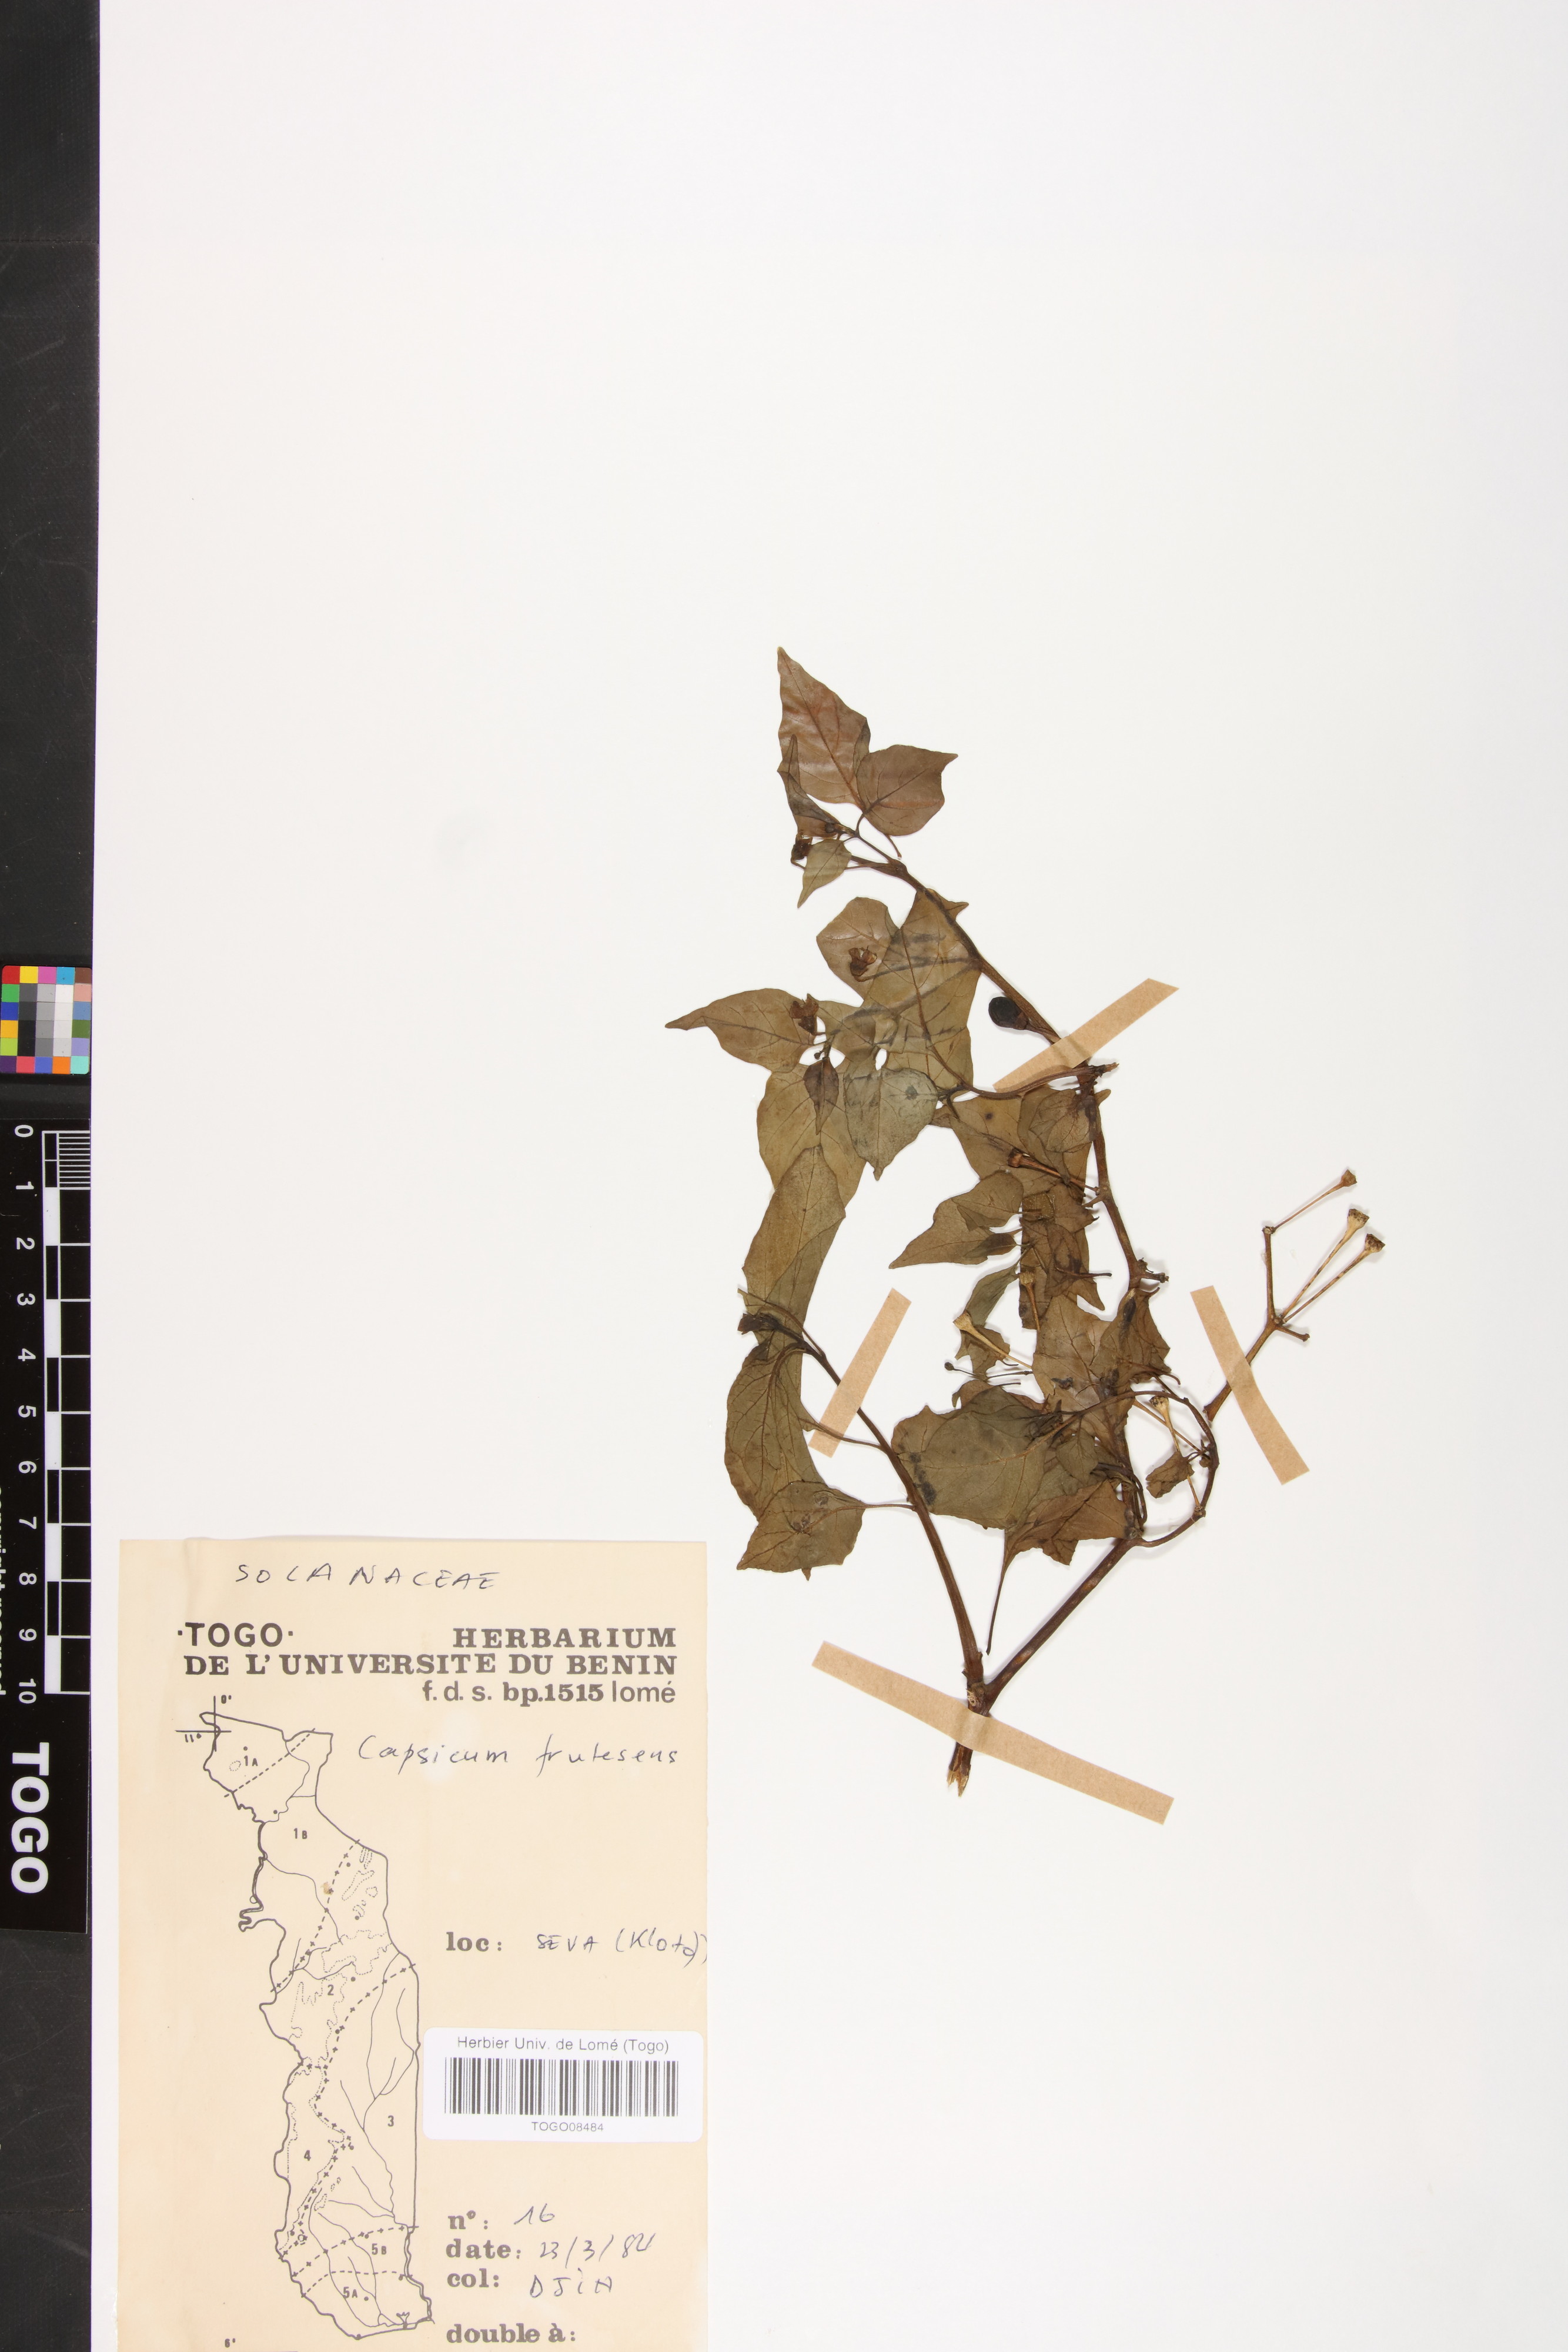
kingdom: Plantae
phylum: Tracheophyta
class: Magnoliopsida
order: Solanales
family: Solanaceae
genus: Capsicum
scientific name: Capsicum annuum
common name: Sweet pepper
